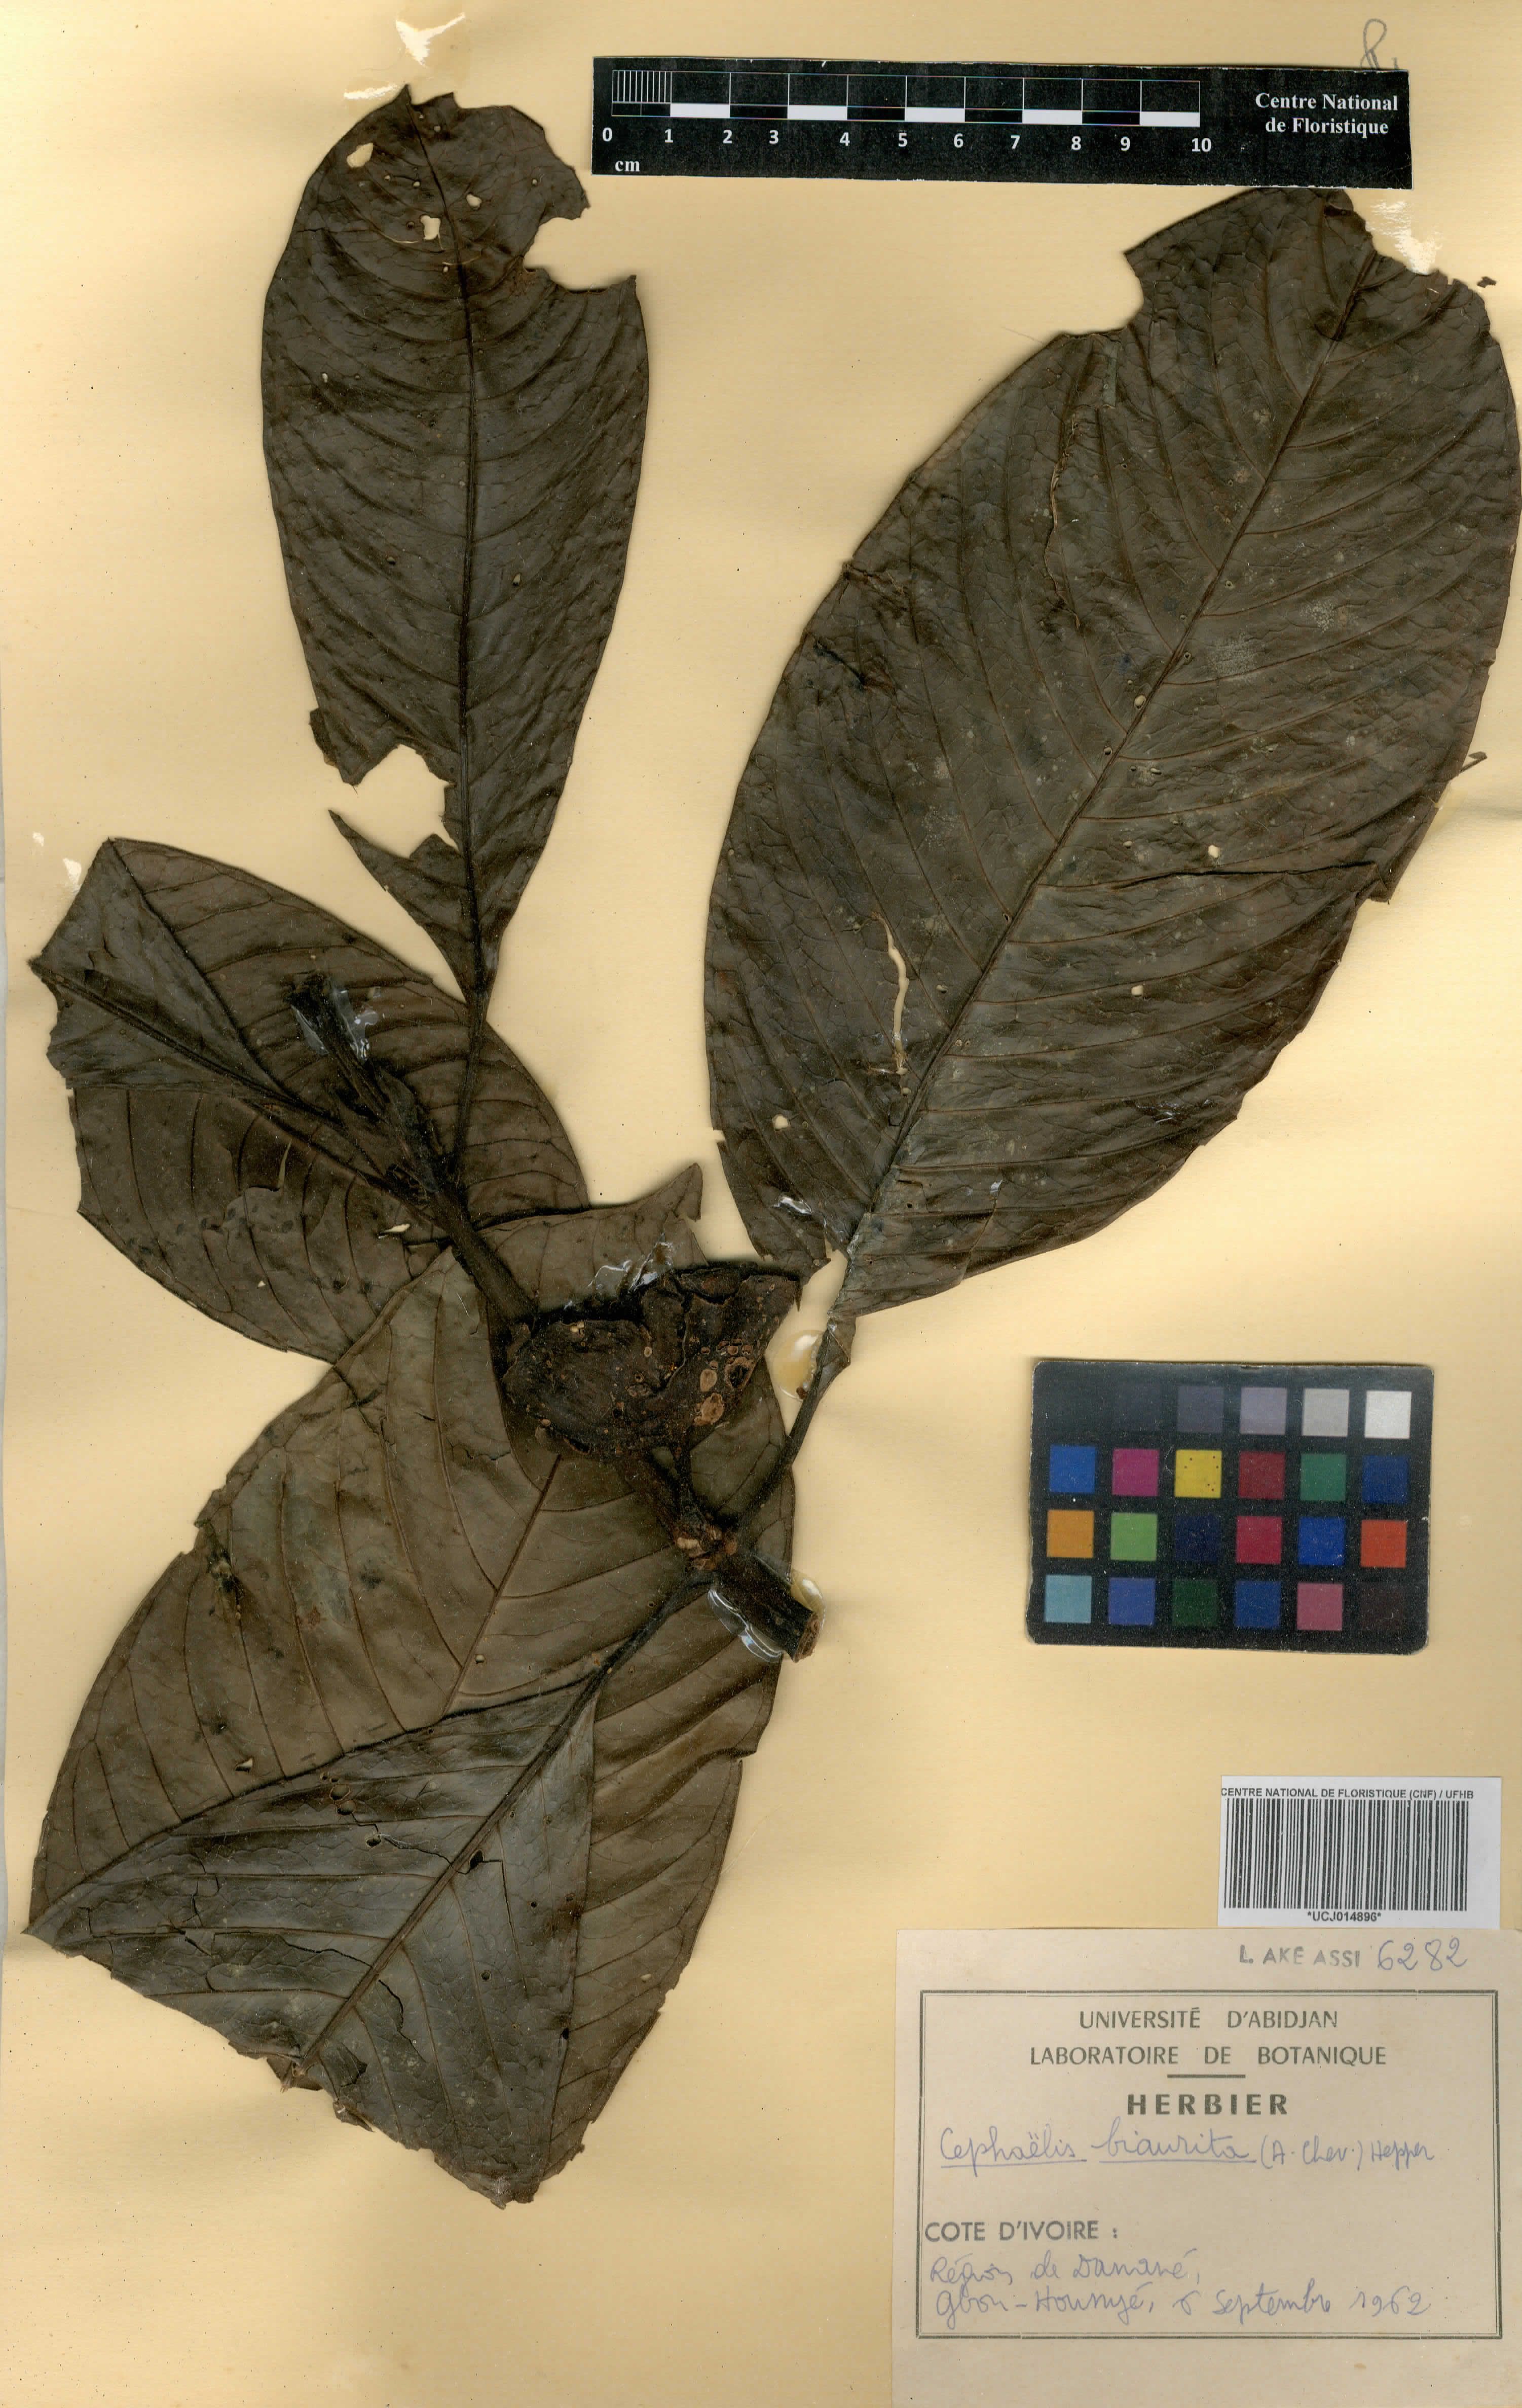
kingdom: Plantae
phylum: Tracheophyta
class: Magnoliopsida
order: Gentianales
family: Rubiaceae
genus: Psychotria
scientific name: Psychotria biaurita
